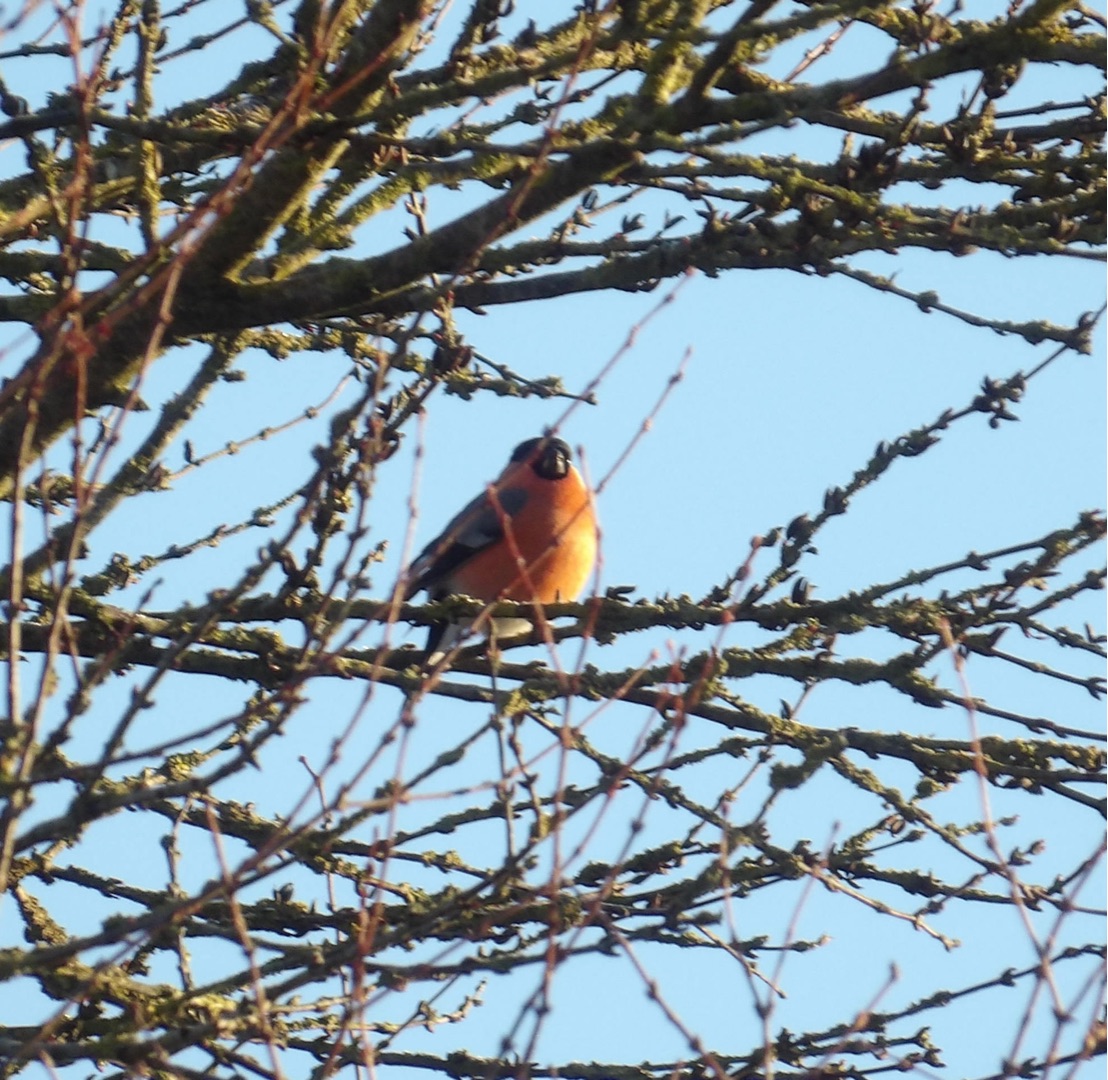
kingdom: Animalia
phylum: Chordata
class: Aves
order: Passeriformes
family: Fringillidae
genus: Pyrrhula
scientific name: Pyrrhula pyrrhula
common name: Dompap
